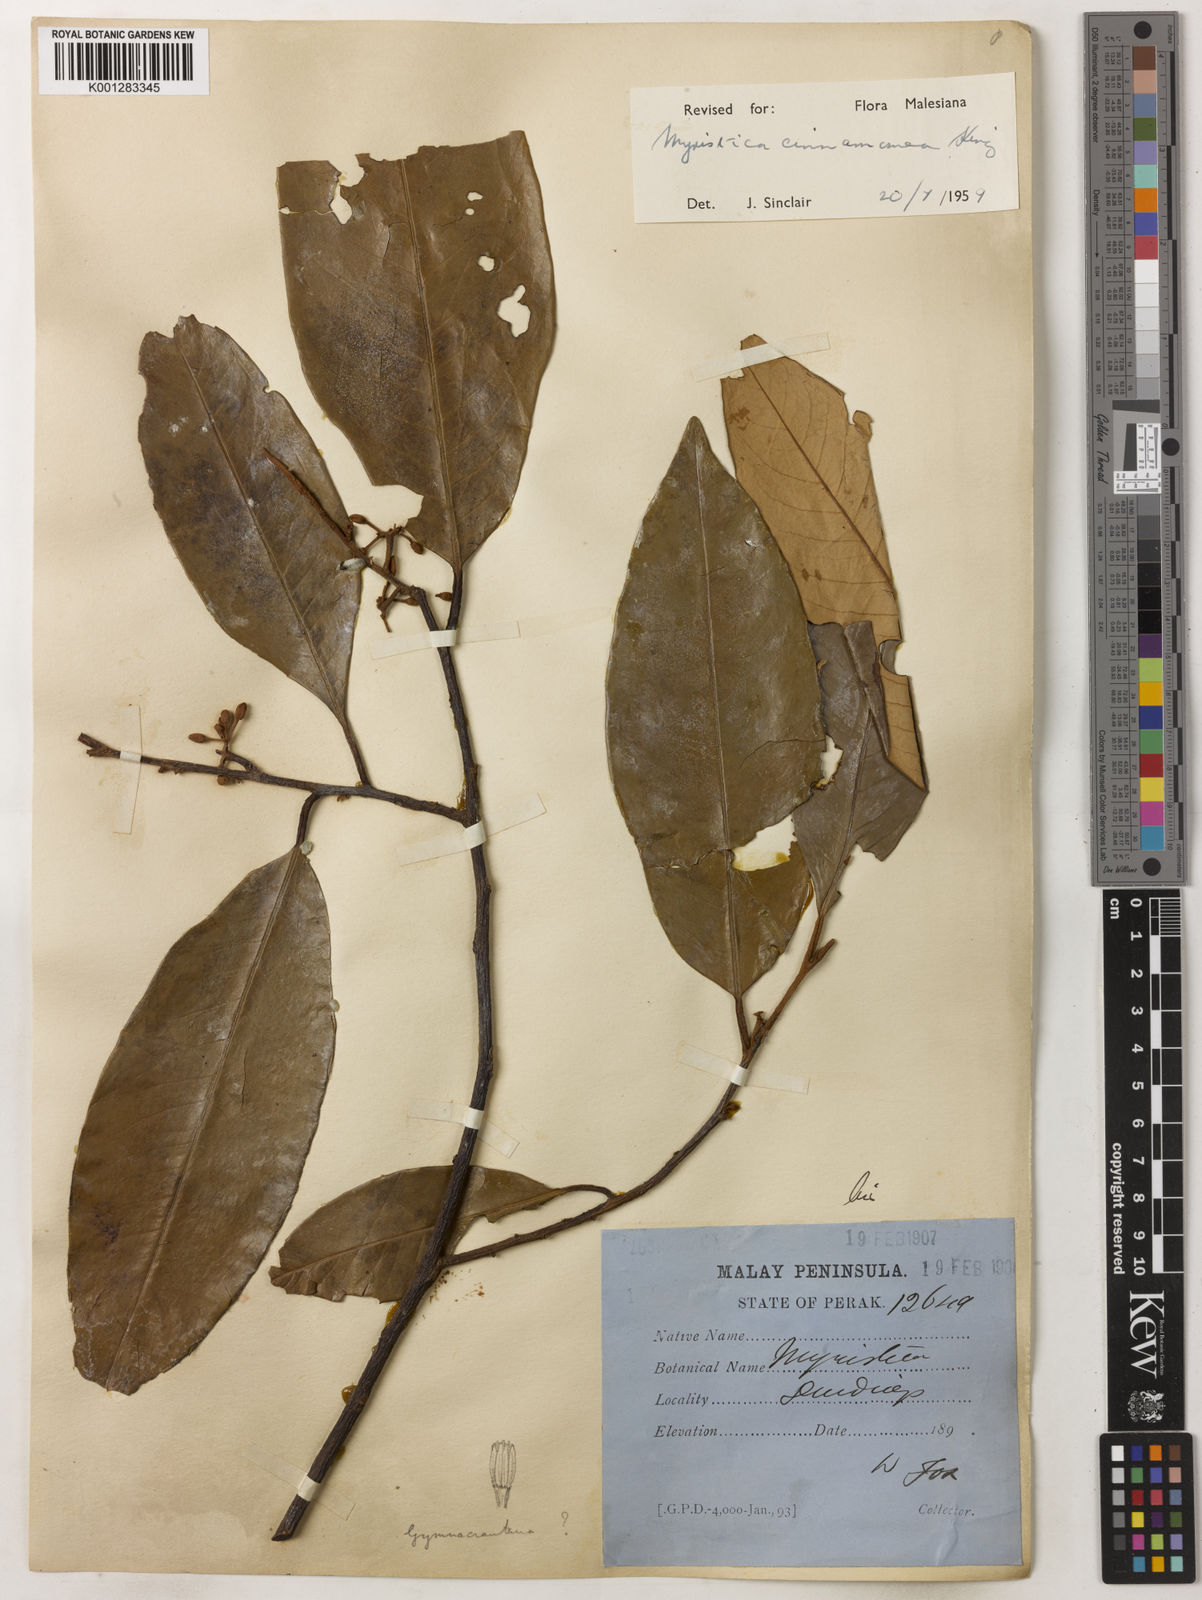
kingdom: Plantae
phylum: Tracheophyta
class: Magnoliopsida
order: Magnoliales
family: Myristicaceae
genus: Myristica
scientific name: Myristica cinnamomea
